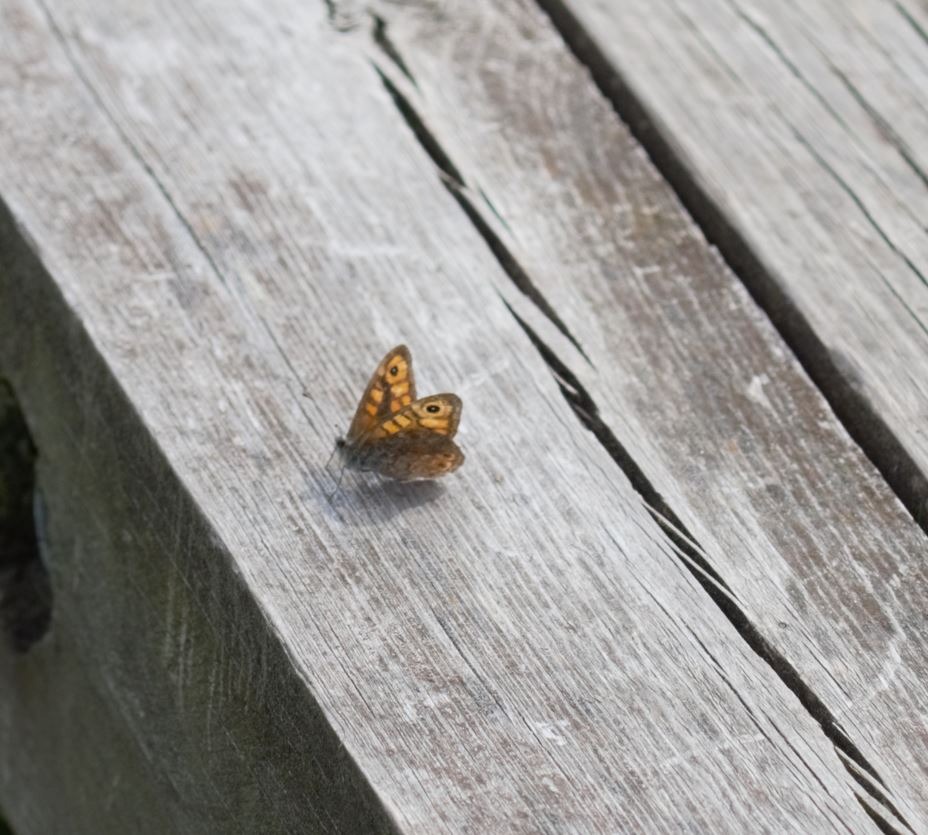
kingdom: Animalia
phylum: Arthropoda
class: Insecta
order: Lepidoptera
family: Nymphalidae
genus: Pararge
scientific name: Pararge Lasiommata megera
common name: Vejrandøje
